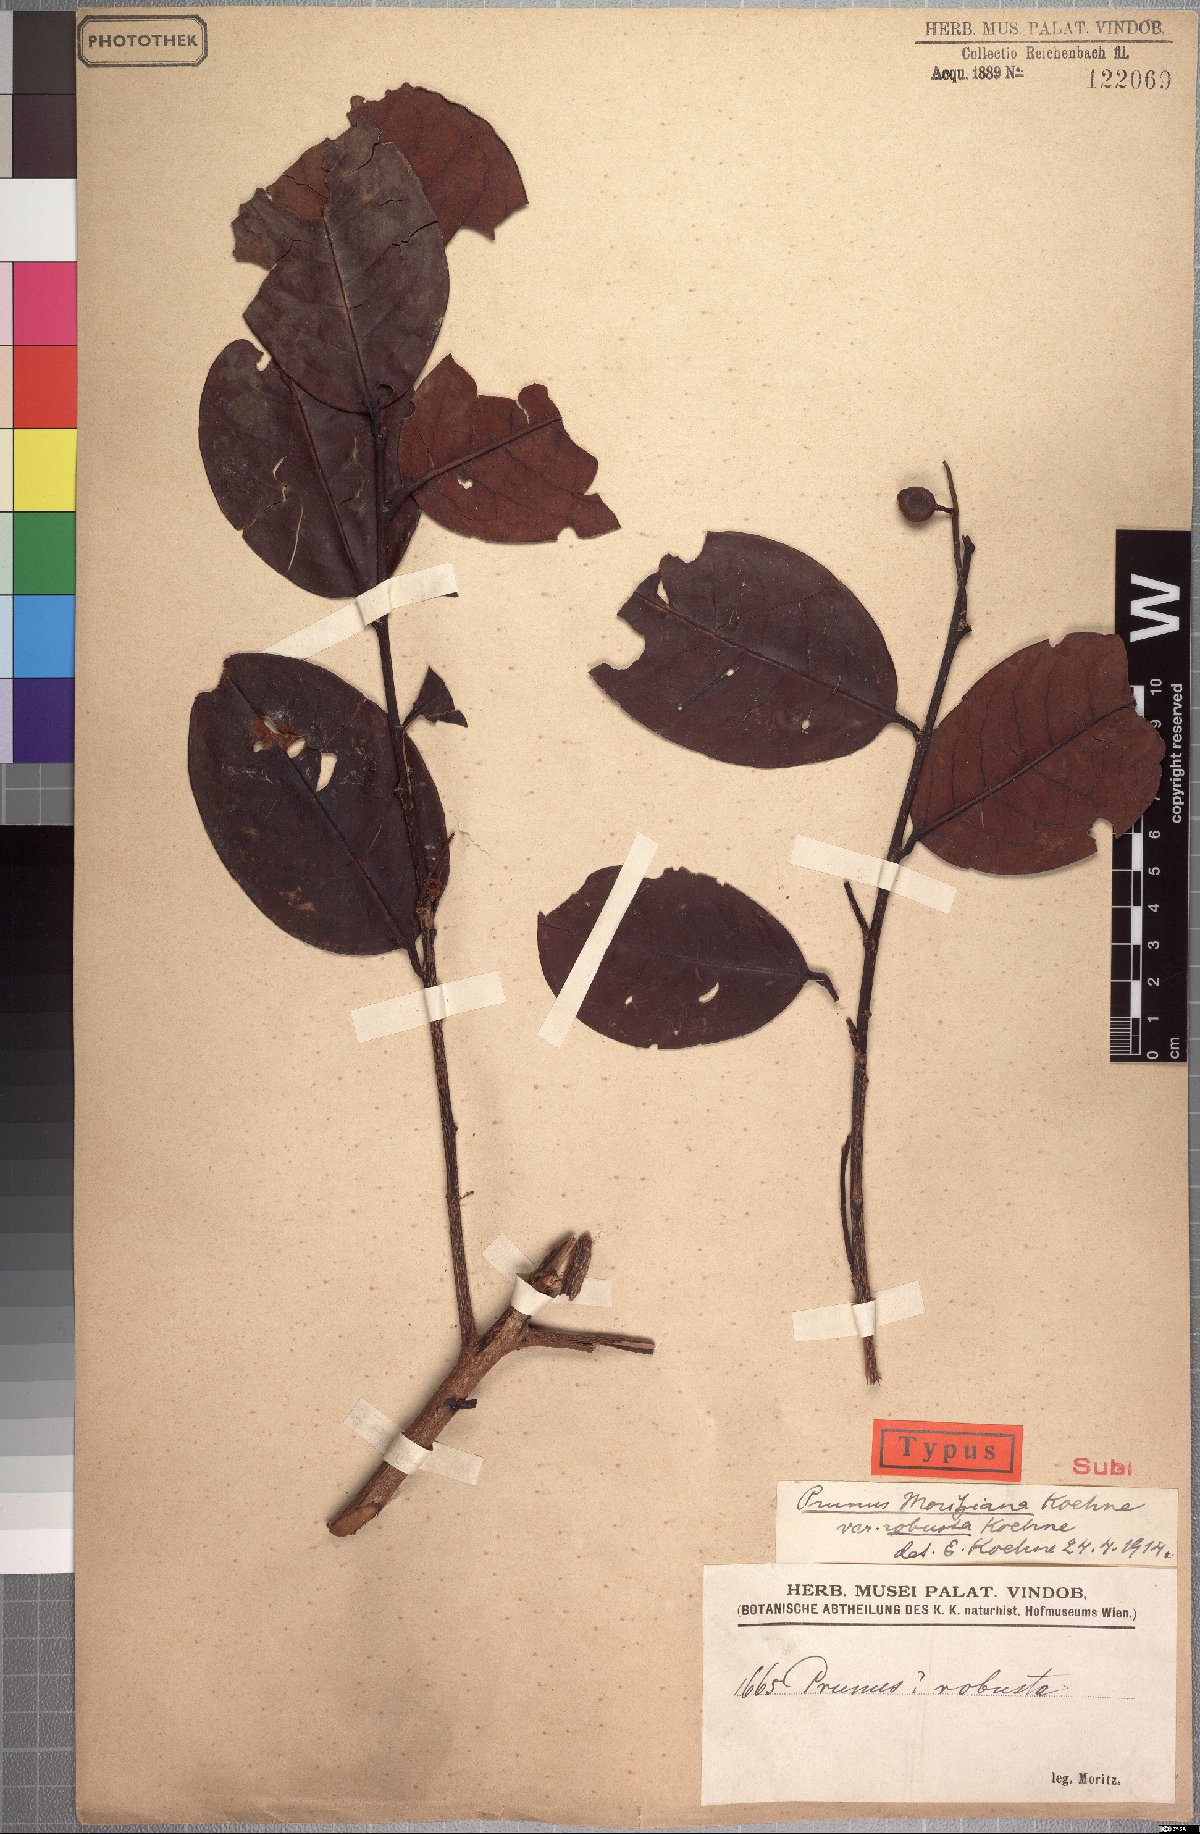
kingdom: Plantae
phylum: Tracheophyta
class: Magnoliopsida
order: Rosales
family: Rosaceae
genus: Prunus
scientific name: Prunus moritziana
